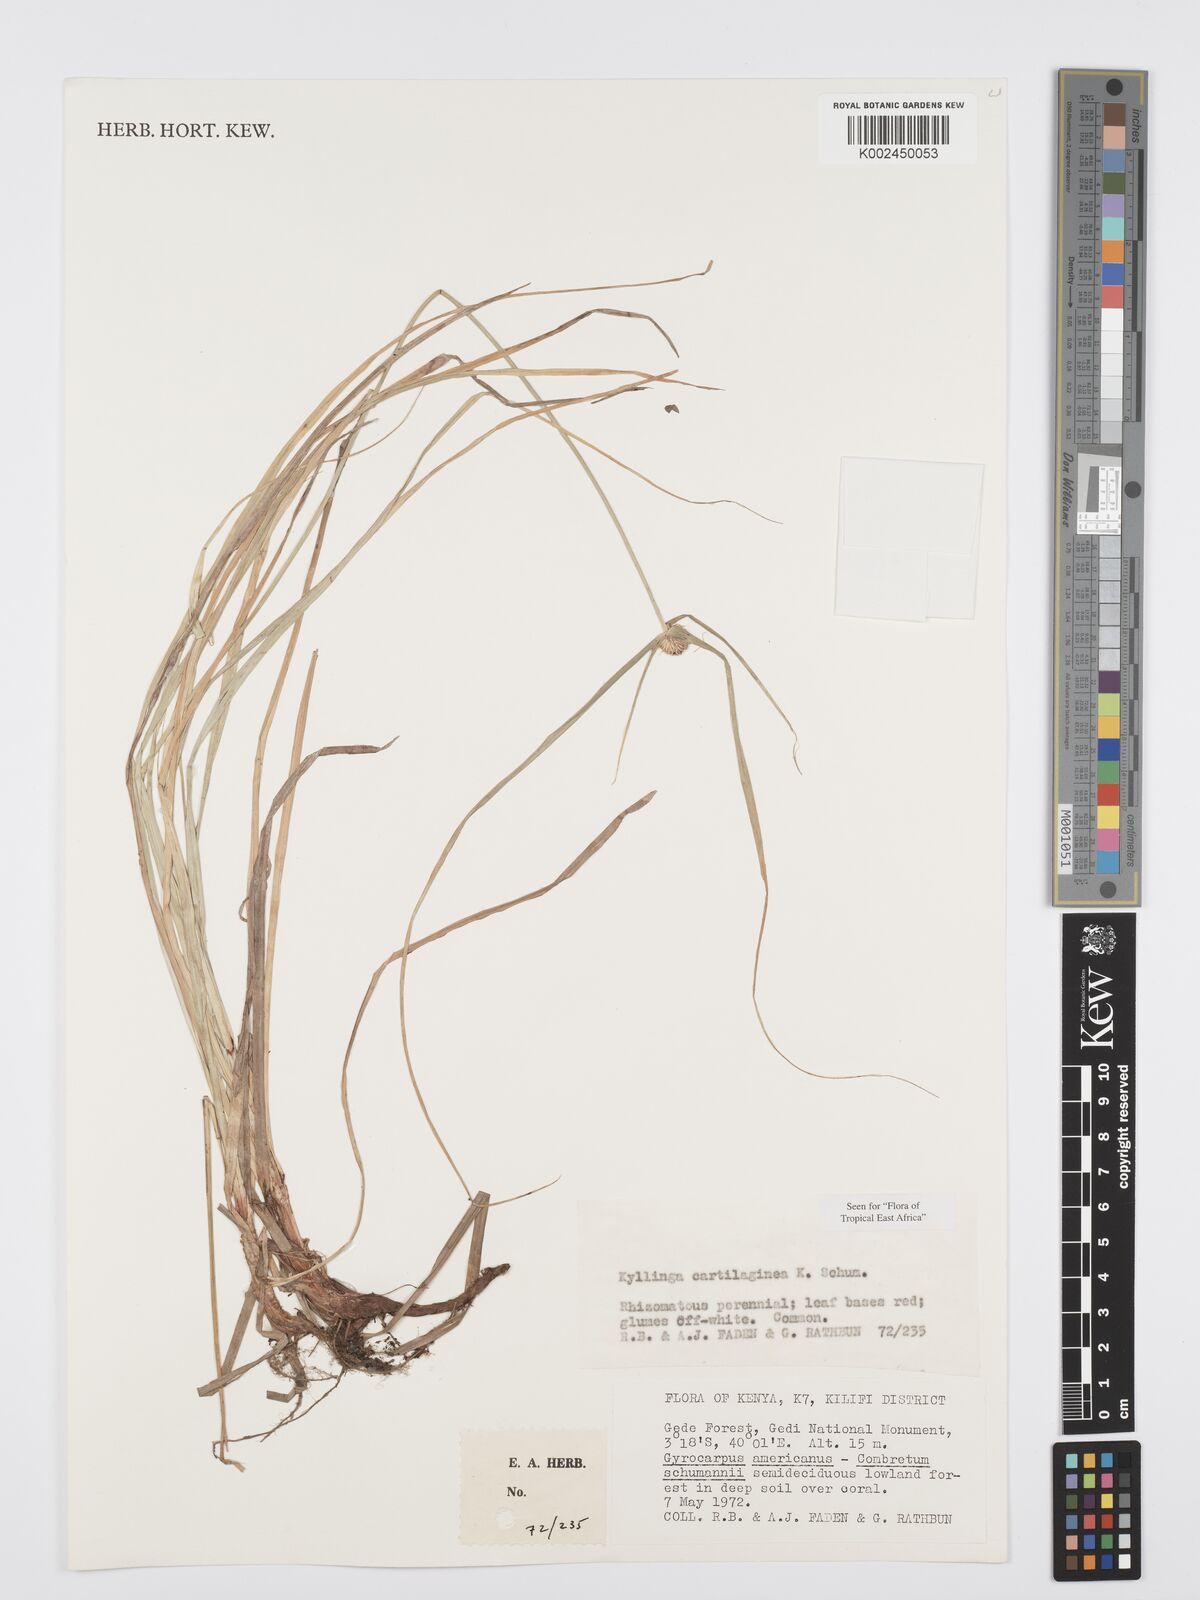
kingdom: Plantae
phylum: Tracheophyta
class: Liliopsida
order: Poales
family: Cyperaceae
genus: Cyperus
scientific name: Cyperus cartilagineus
